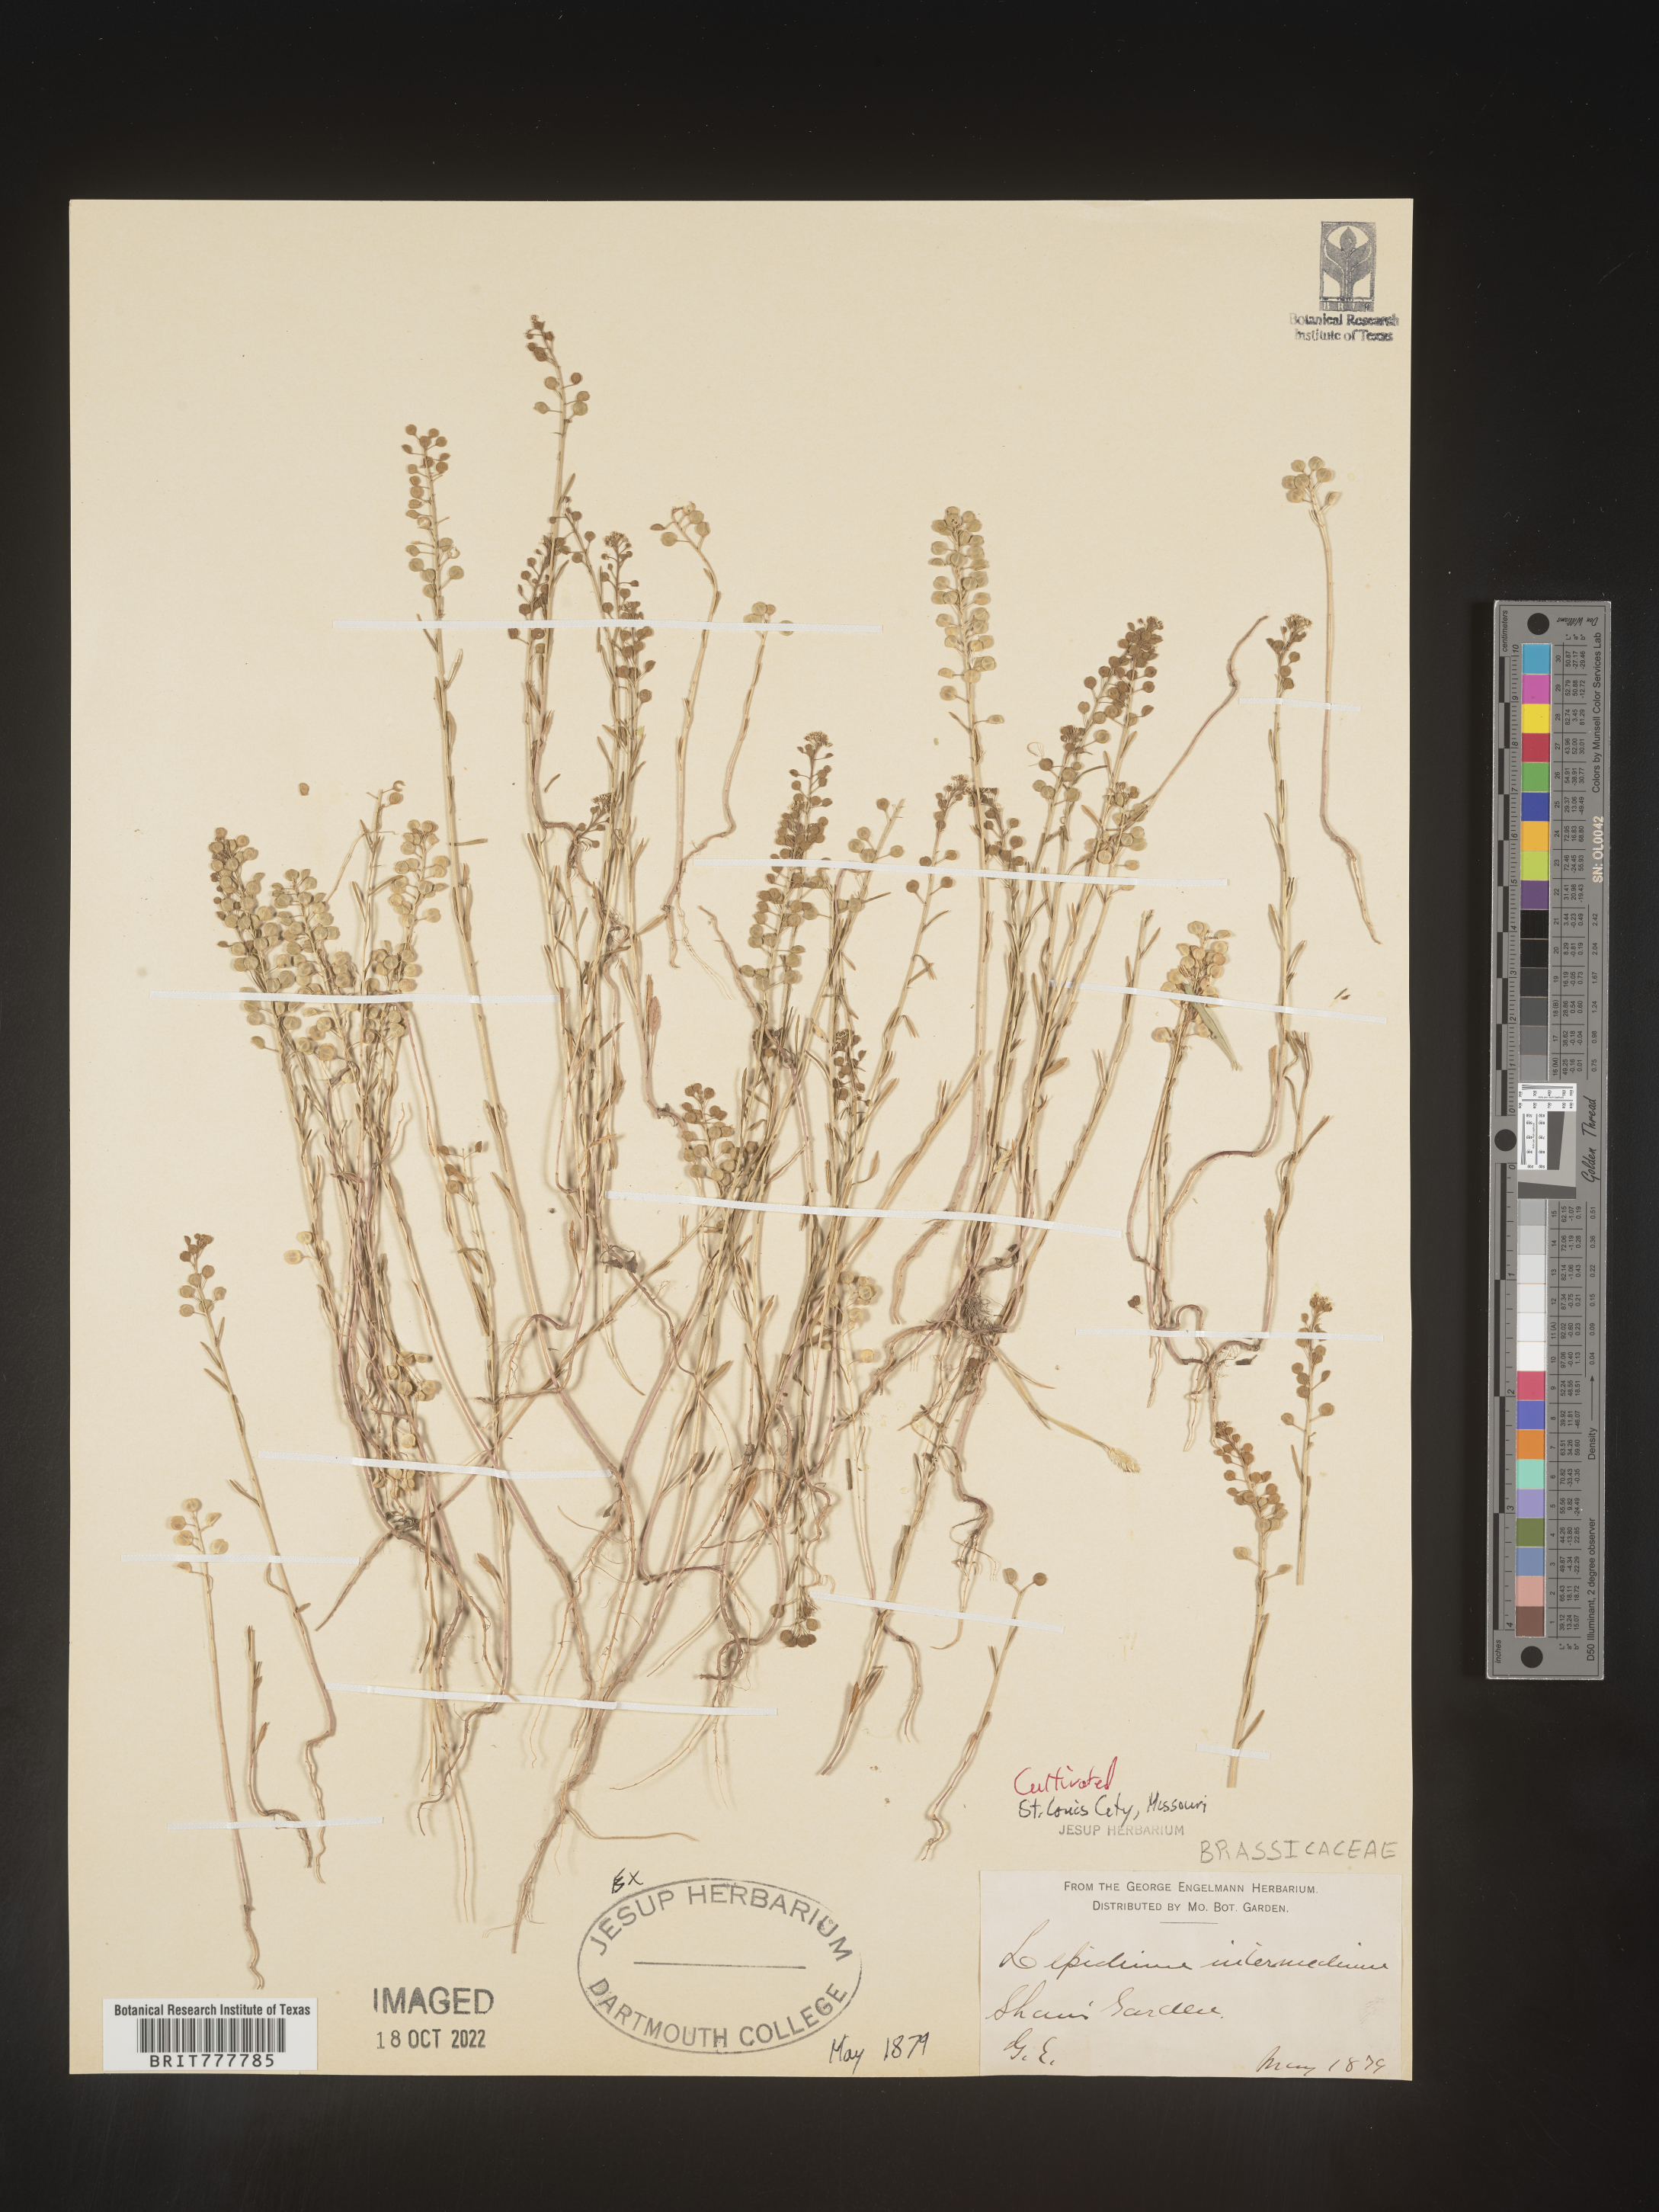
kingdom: Plantae
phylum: Tracheophyta
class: Magnoliopsida
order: Brassicales
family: Brassicaceae
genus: Lepidium
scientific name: Lepidium
